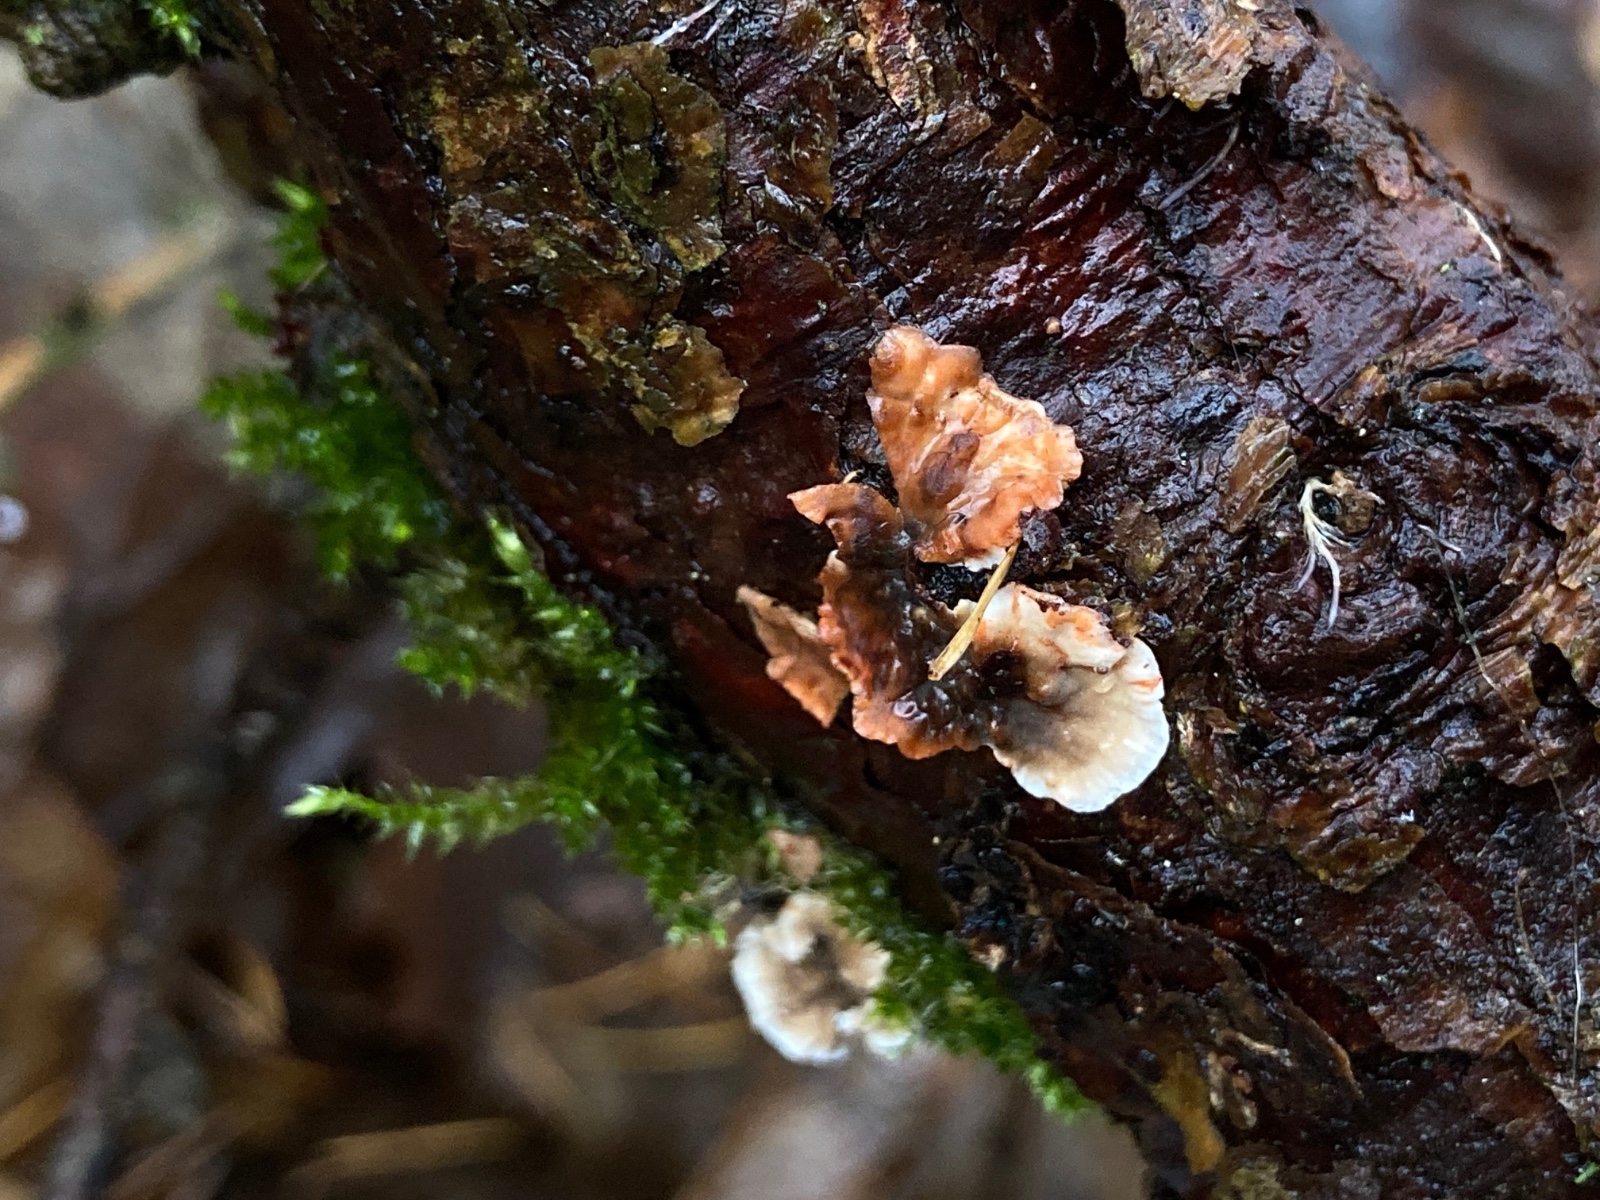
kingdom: Fungi
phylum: Basidiomycota
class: Agaricomycetes
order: Russulales
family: Stereaceae
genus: Stereum
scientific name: Stereum sanguinolentum
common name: blødende lædersvamp
